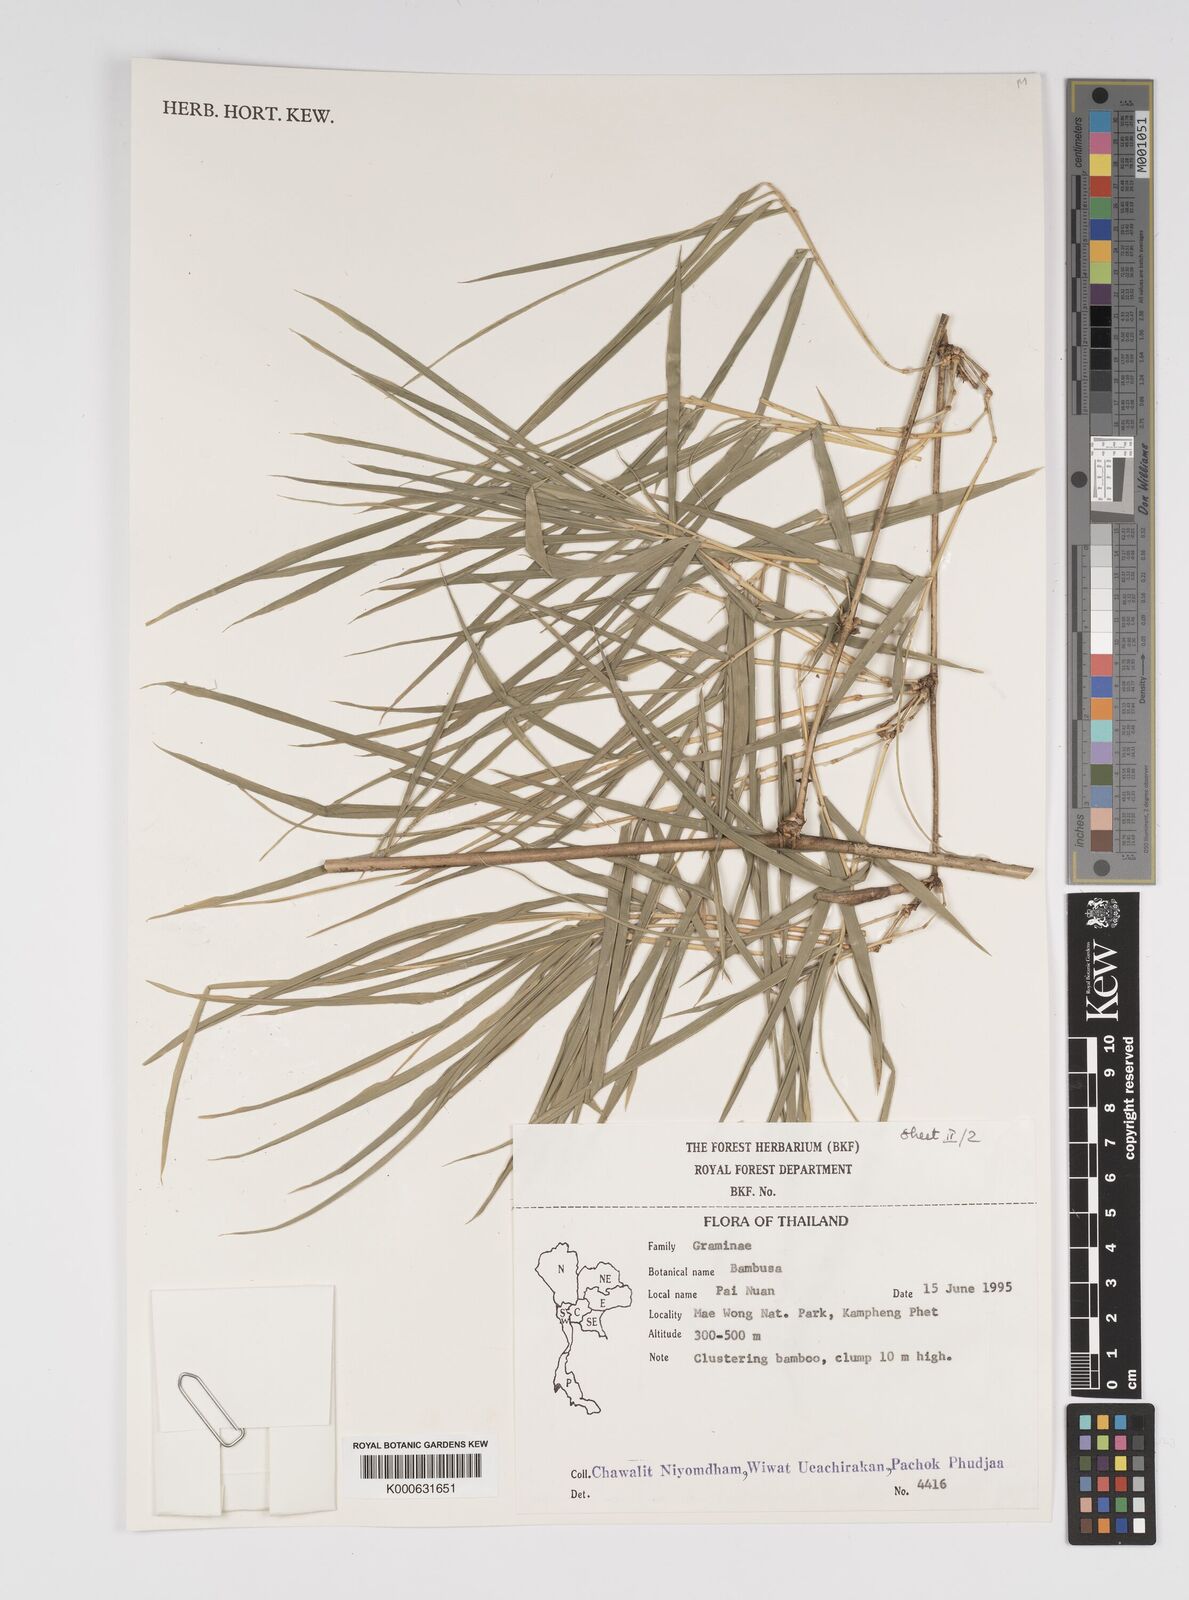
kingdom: Plantae
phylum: Tracheophyta
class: Liliopsida
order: Poales
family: Poaceae
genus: Bambusa
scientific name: Bambusa
